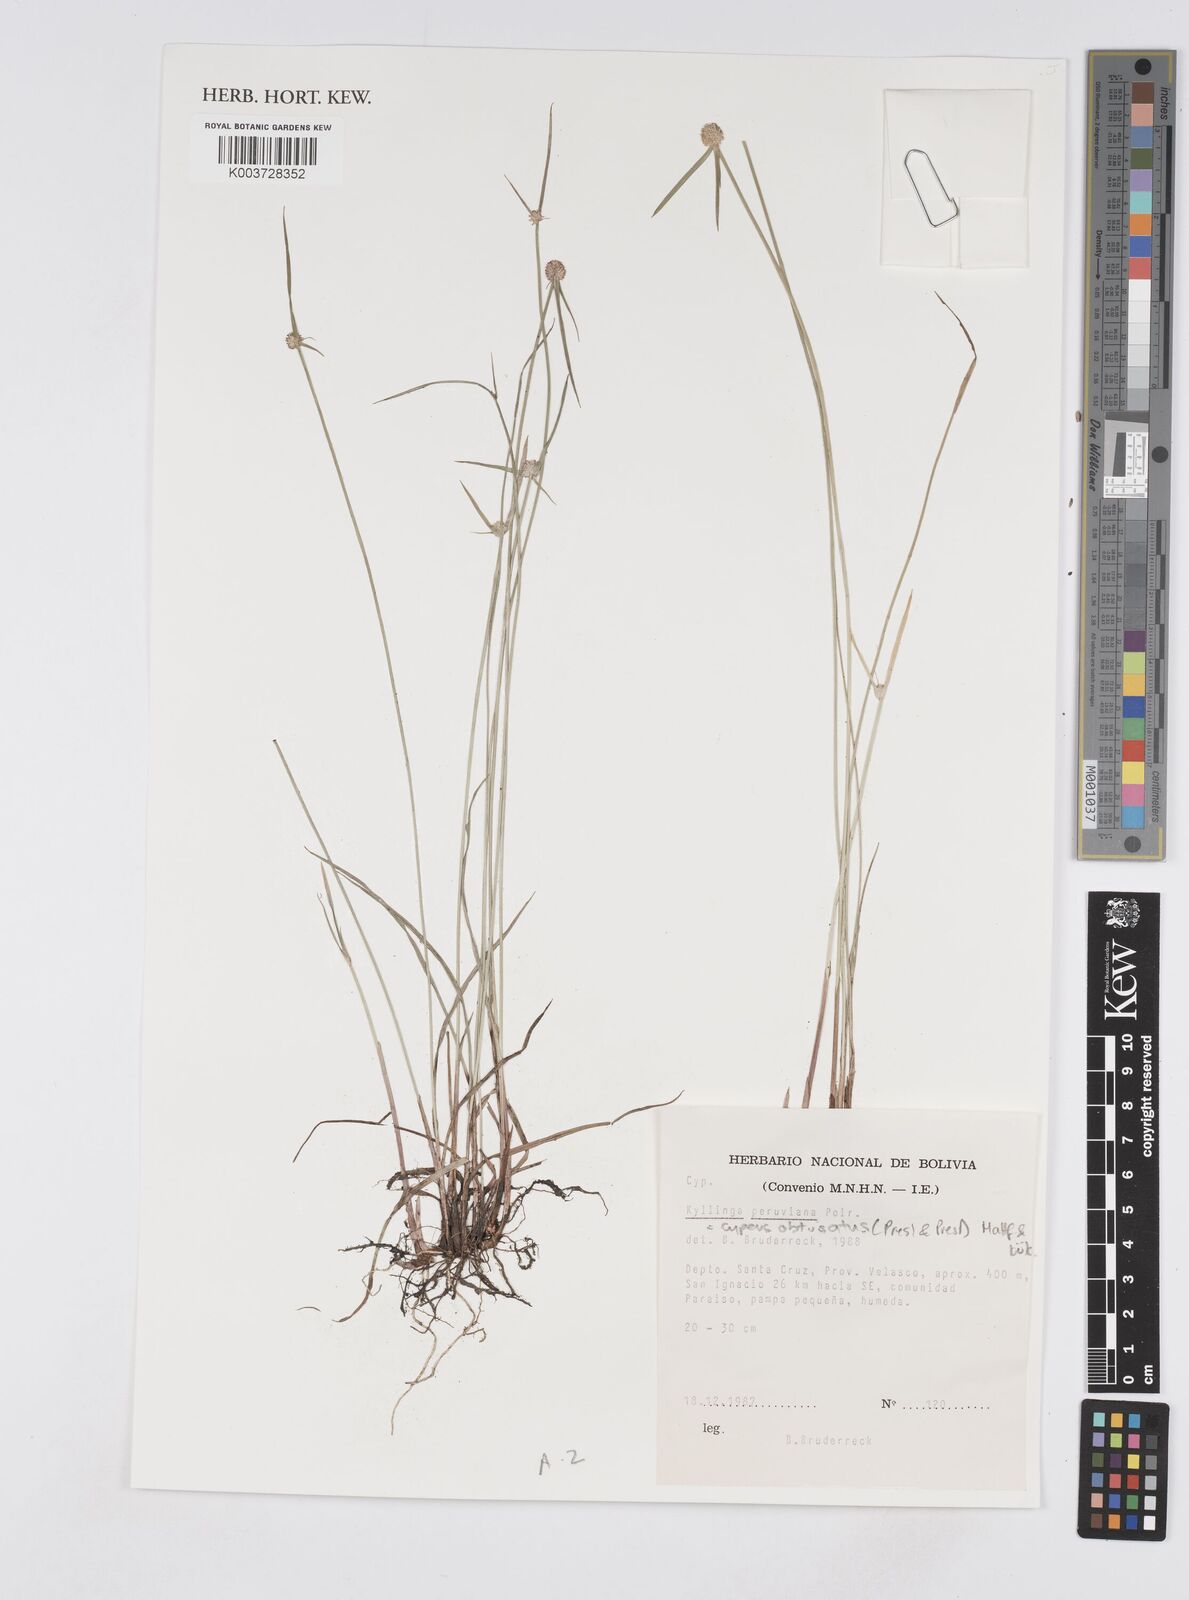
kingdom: Plantae
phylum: Tracheophyta
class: Liliopsida
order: Poales
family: Cyperaceae
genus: Cyperus
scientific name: Cyperus obtusatus
